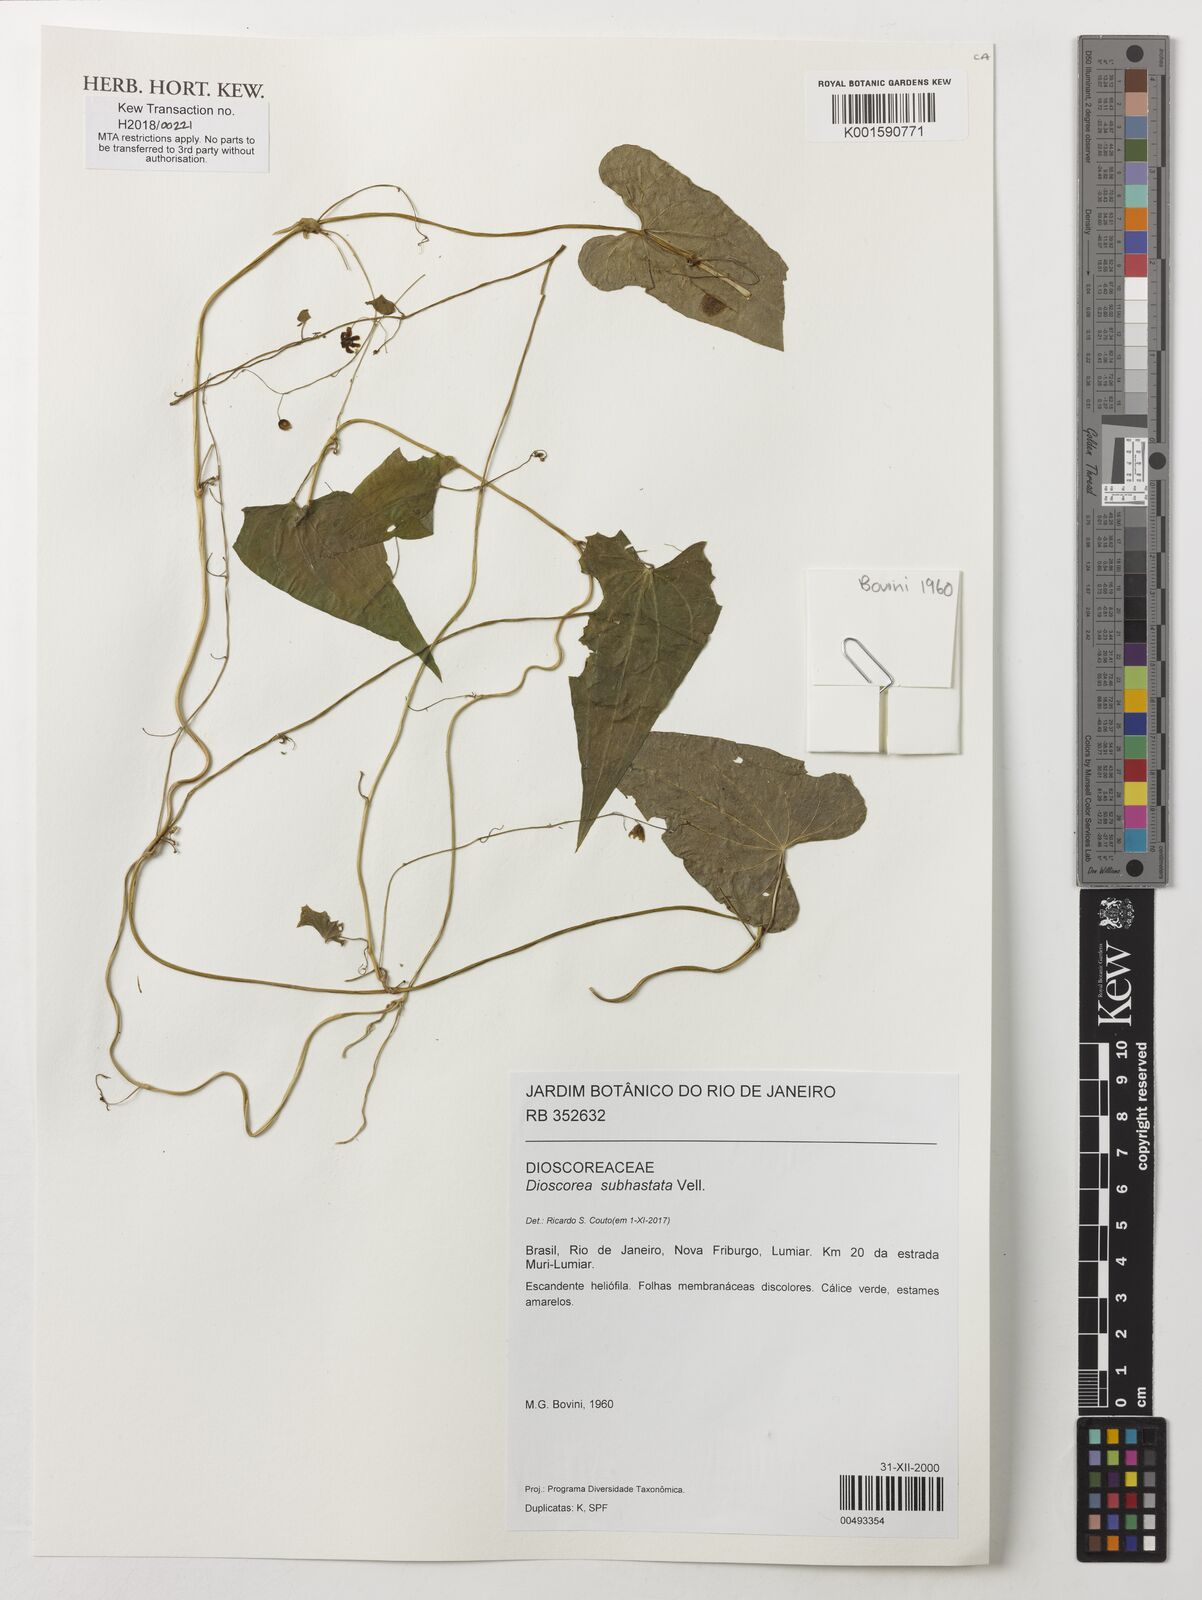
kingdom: Plantae
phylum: Tracheophyta
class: Liliopsida
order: Dioscoreales
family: Dioscoreaceae
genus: Dioscorea
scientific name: Dioscorea subhastata
